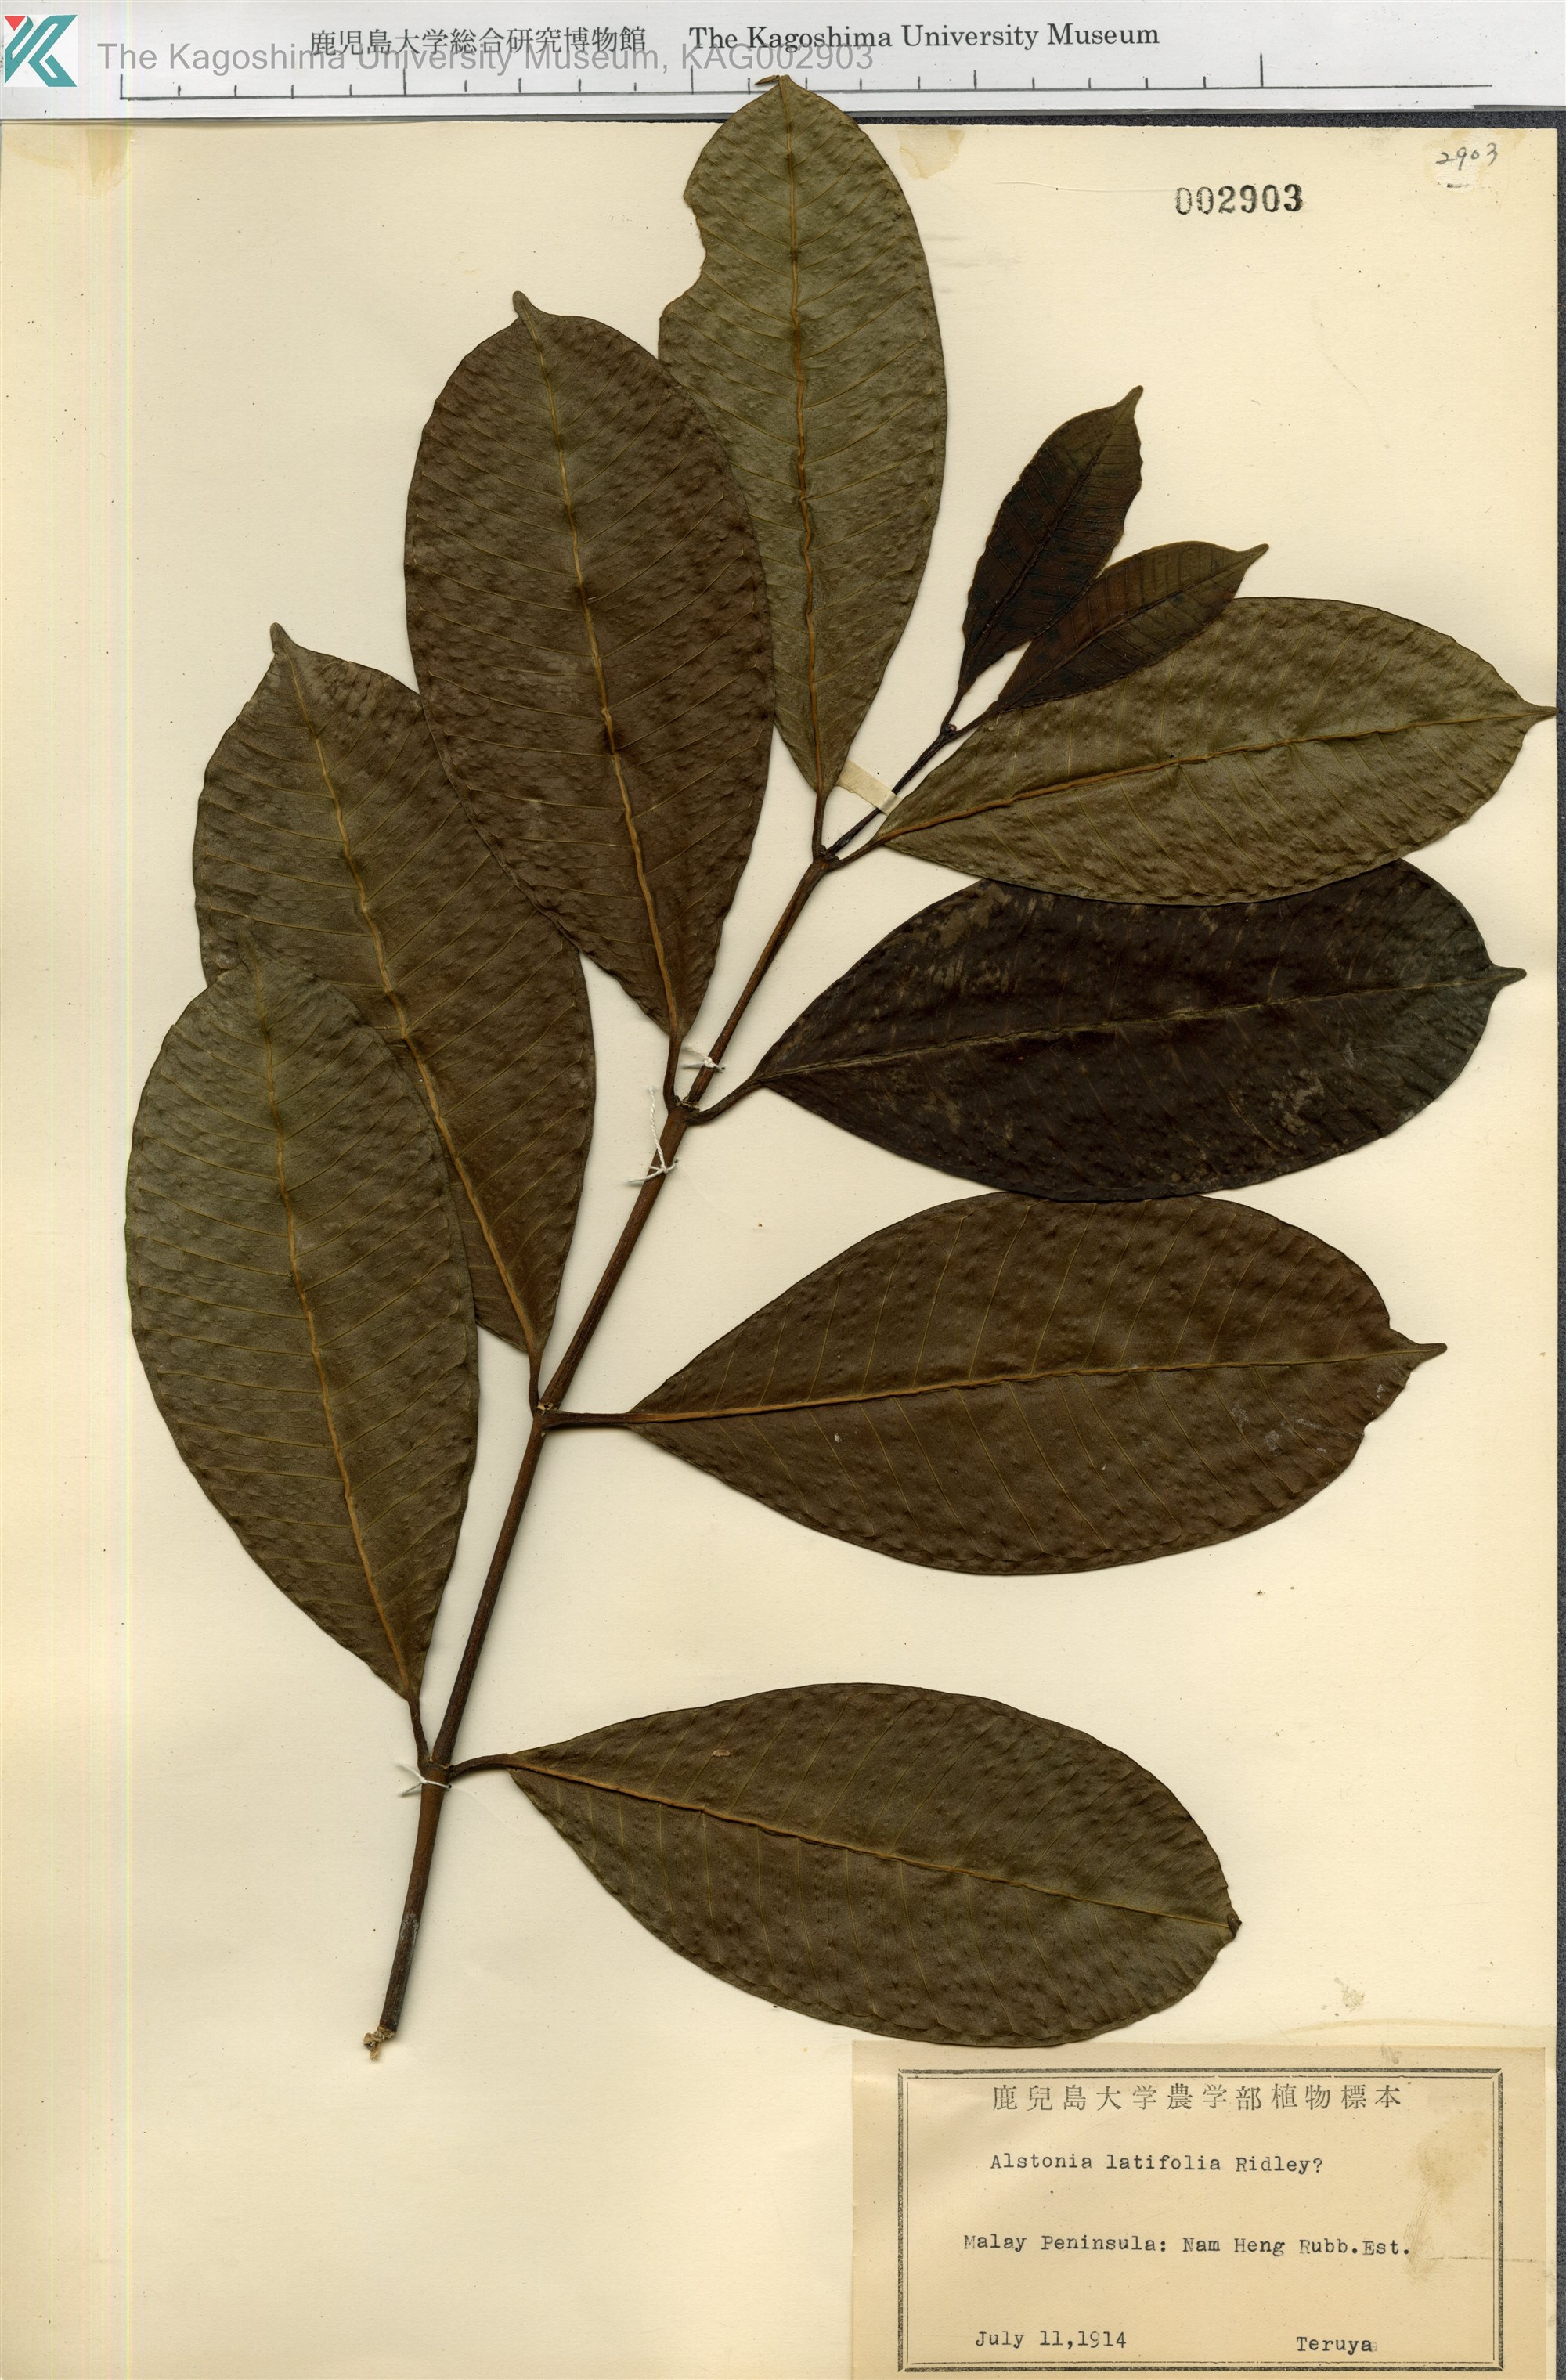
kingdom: Plantae
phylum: Tracheophyta
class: Magnoliopsida
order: Gentianales
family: Apocynaceae
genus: Alstonia
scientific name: Alstonia angustifolia
